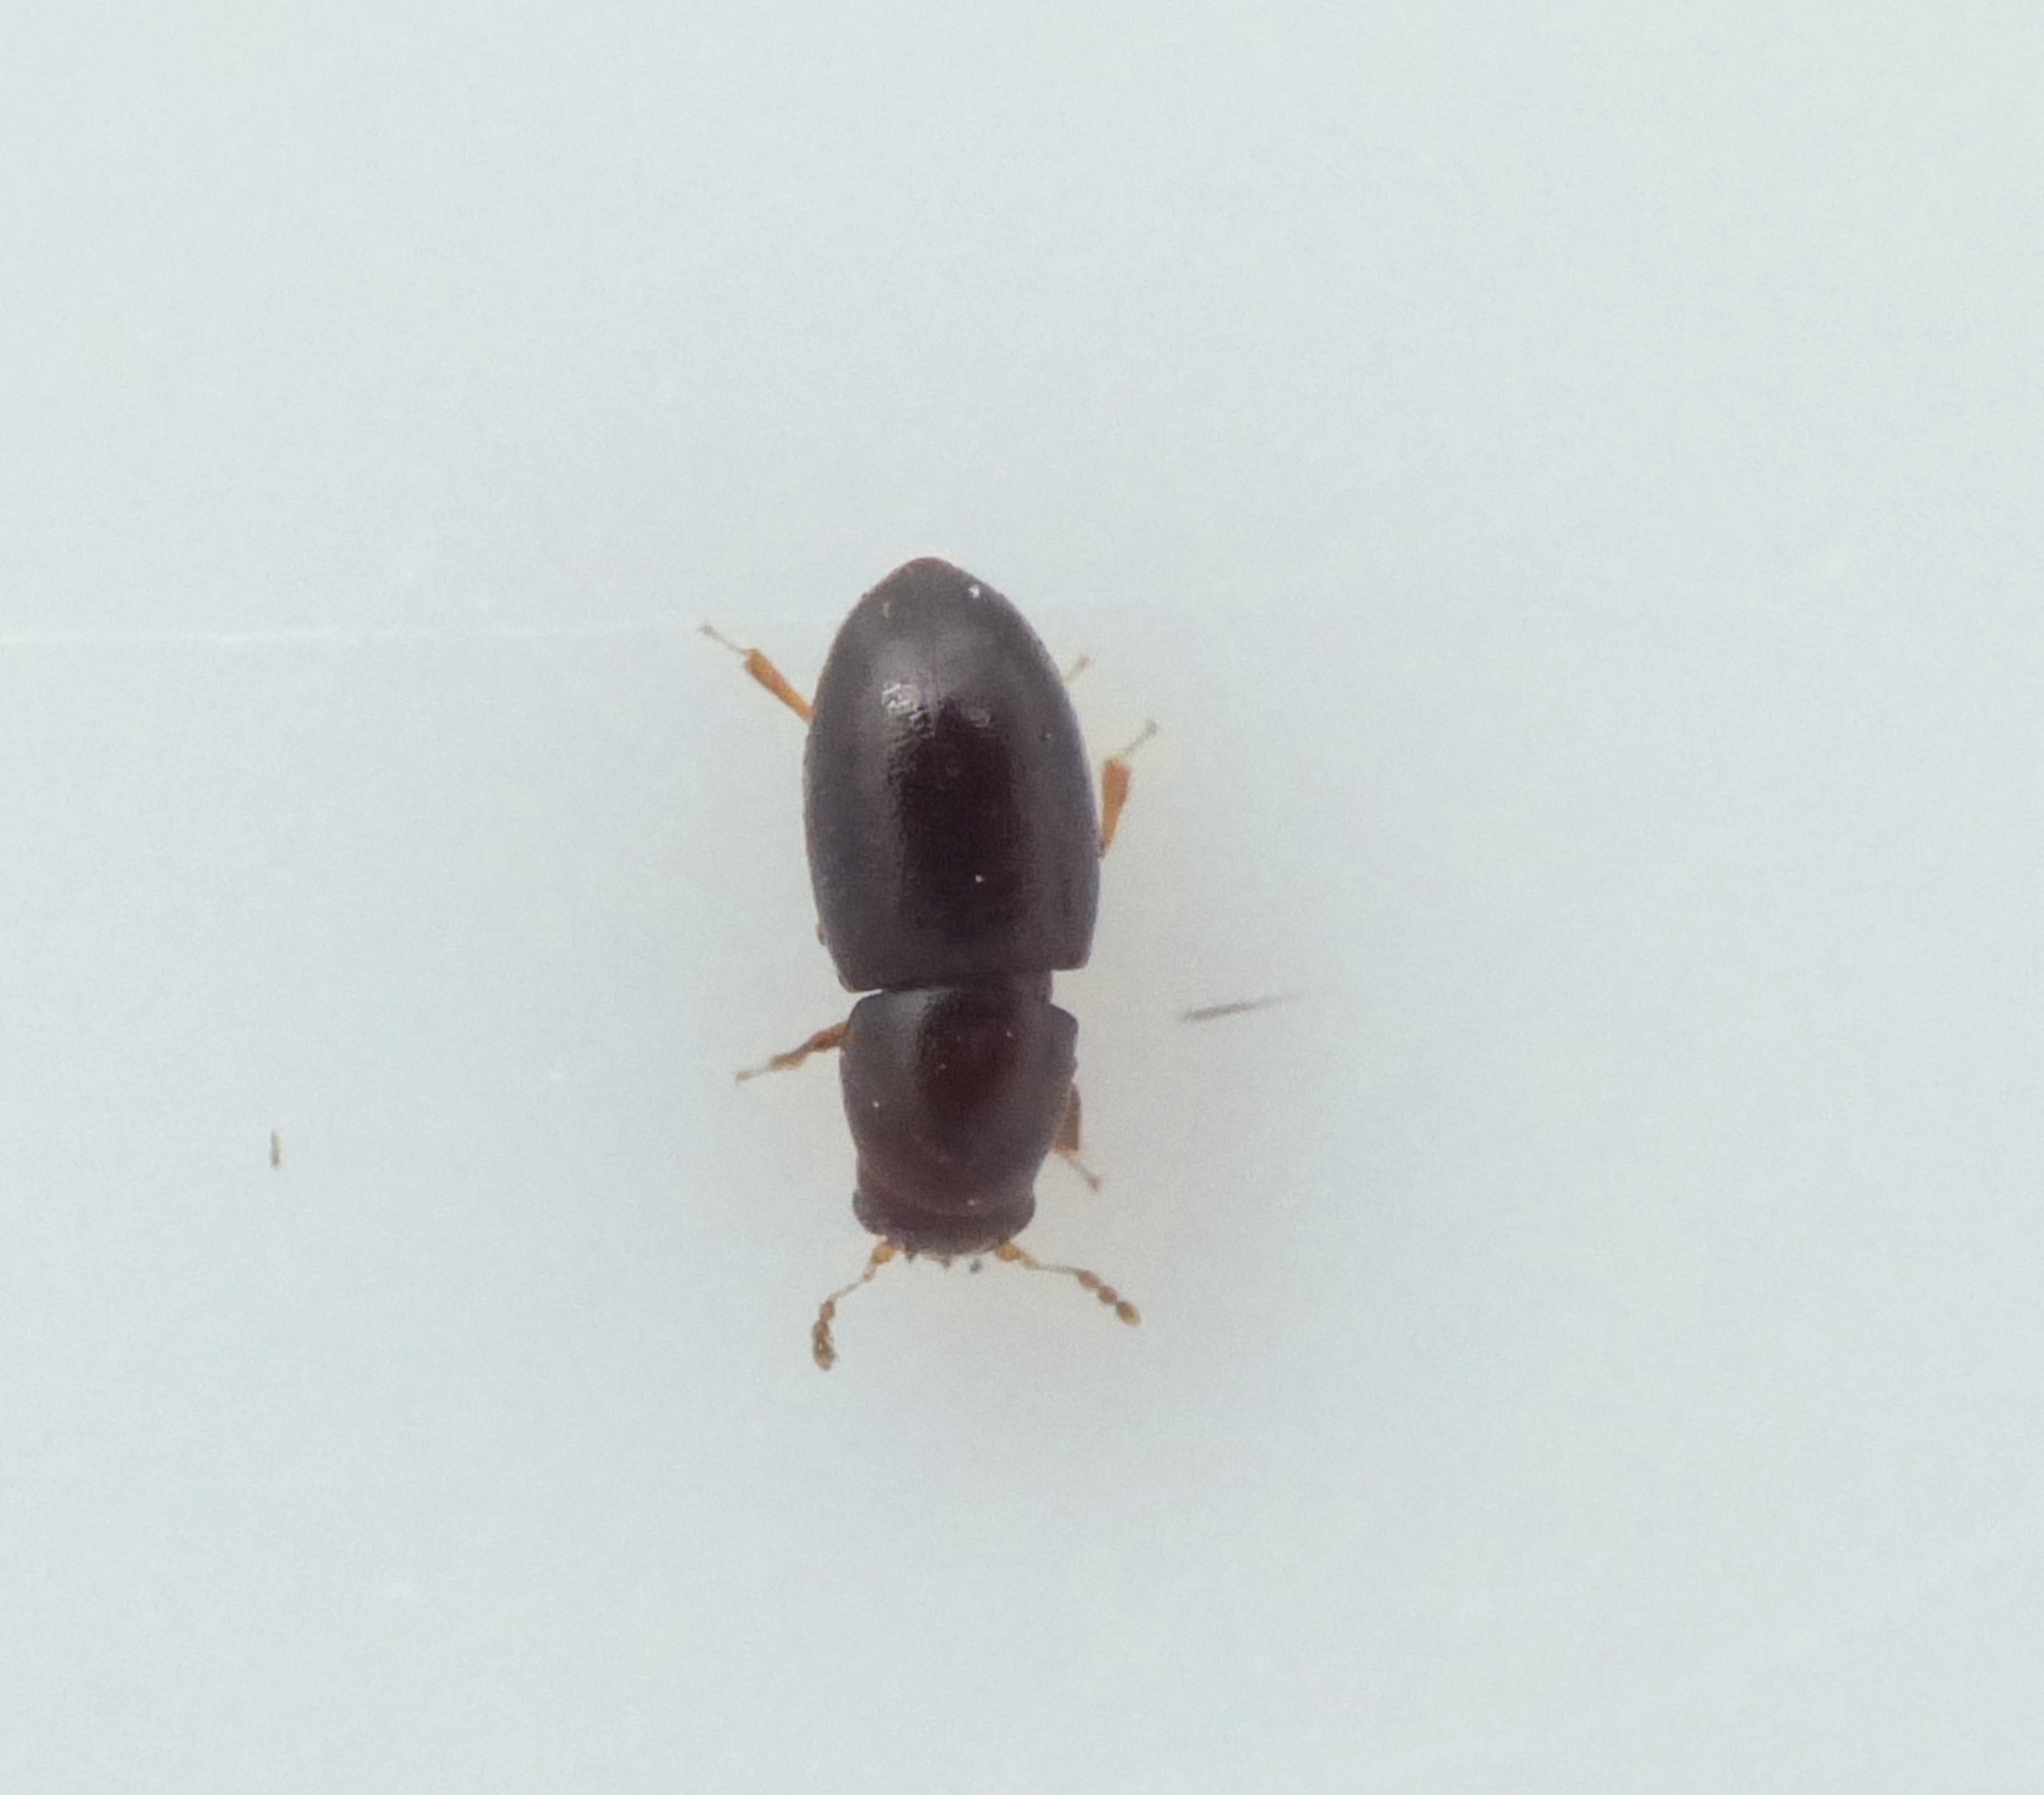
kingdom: Animalia
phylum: Arthropoda
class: Insecta
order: Coleoptera
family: Ciidae
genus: Octotemnus
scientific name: Octotemnus glabriculus
